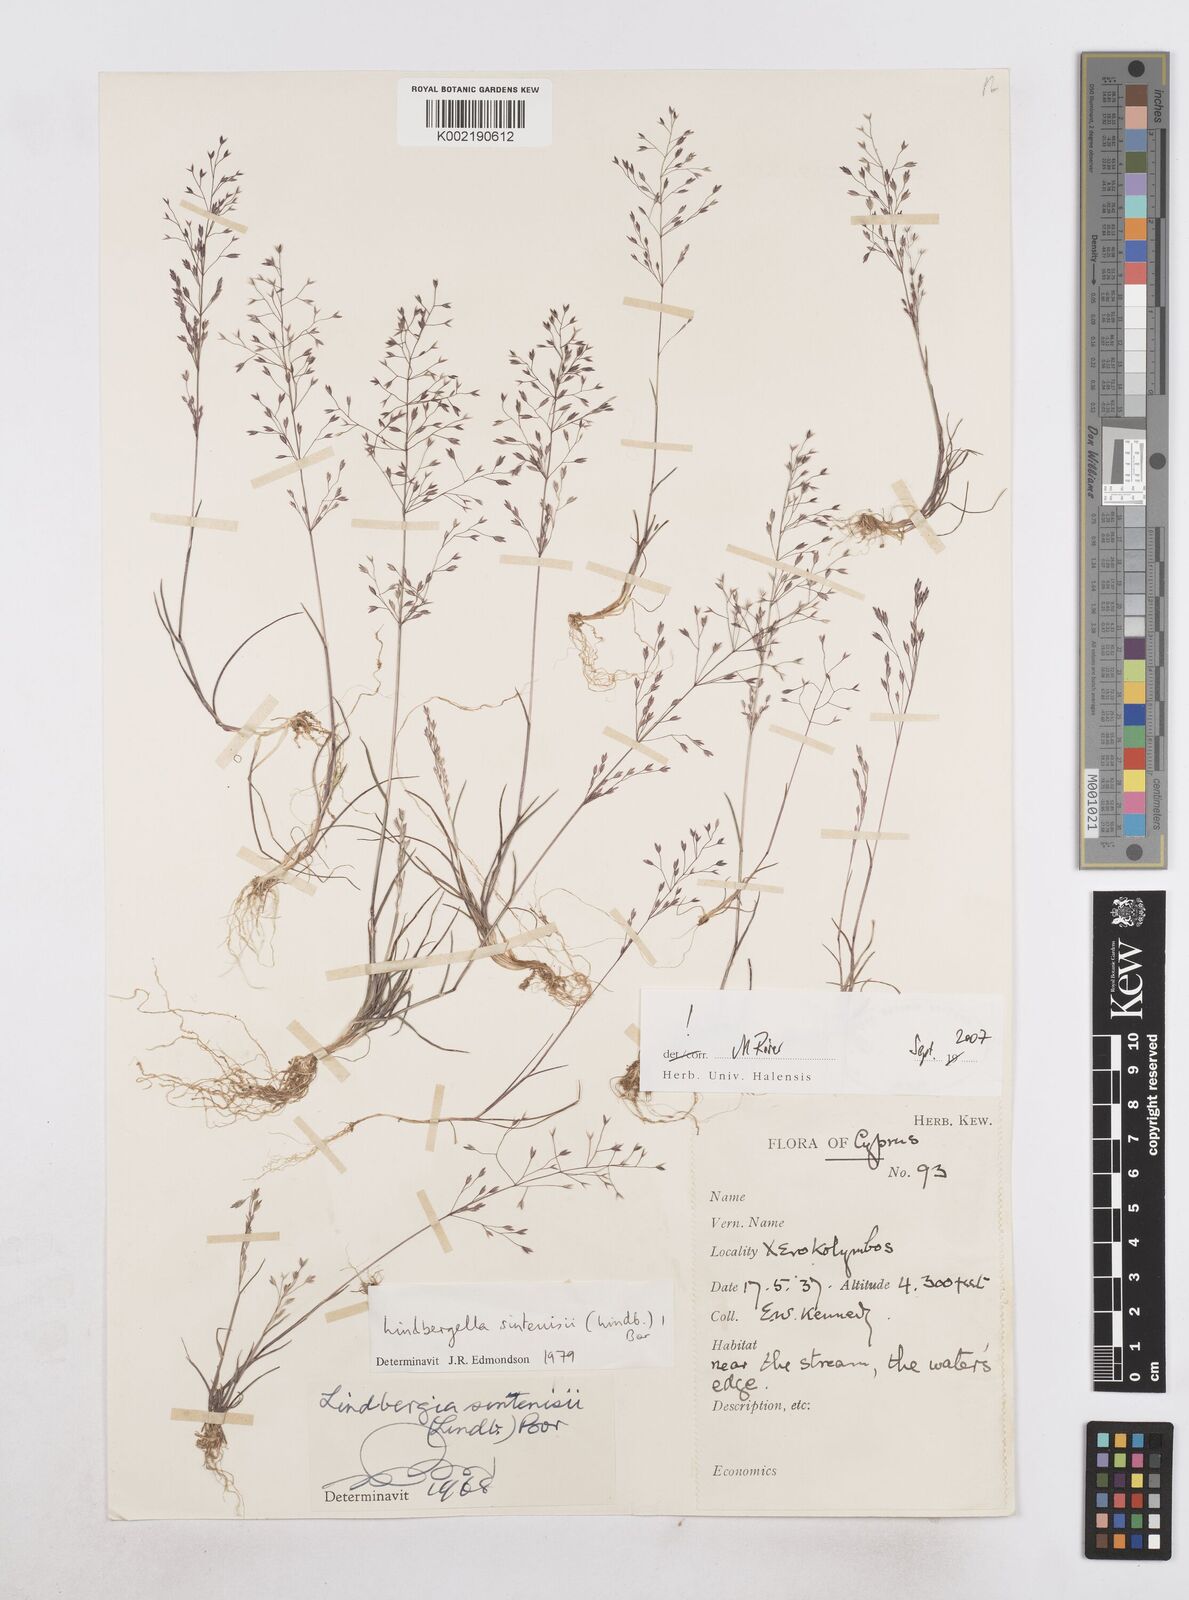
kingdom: Plantae
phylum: Tracheophyta
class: Liliopsida
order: Poales
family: Poaceae
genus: Poa
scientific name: Poa sintenisii
